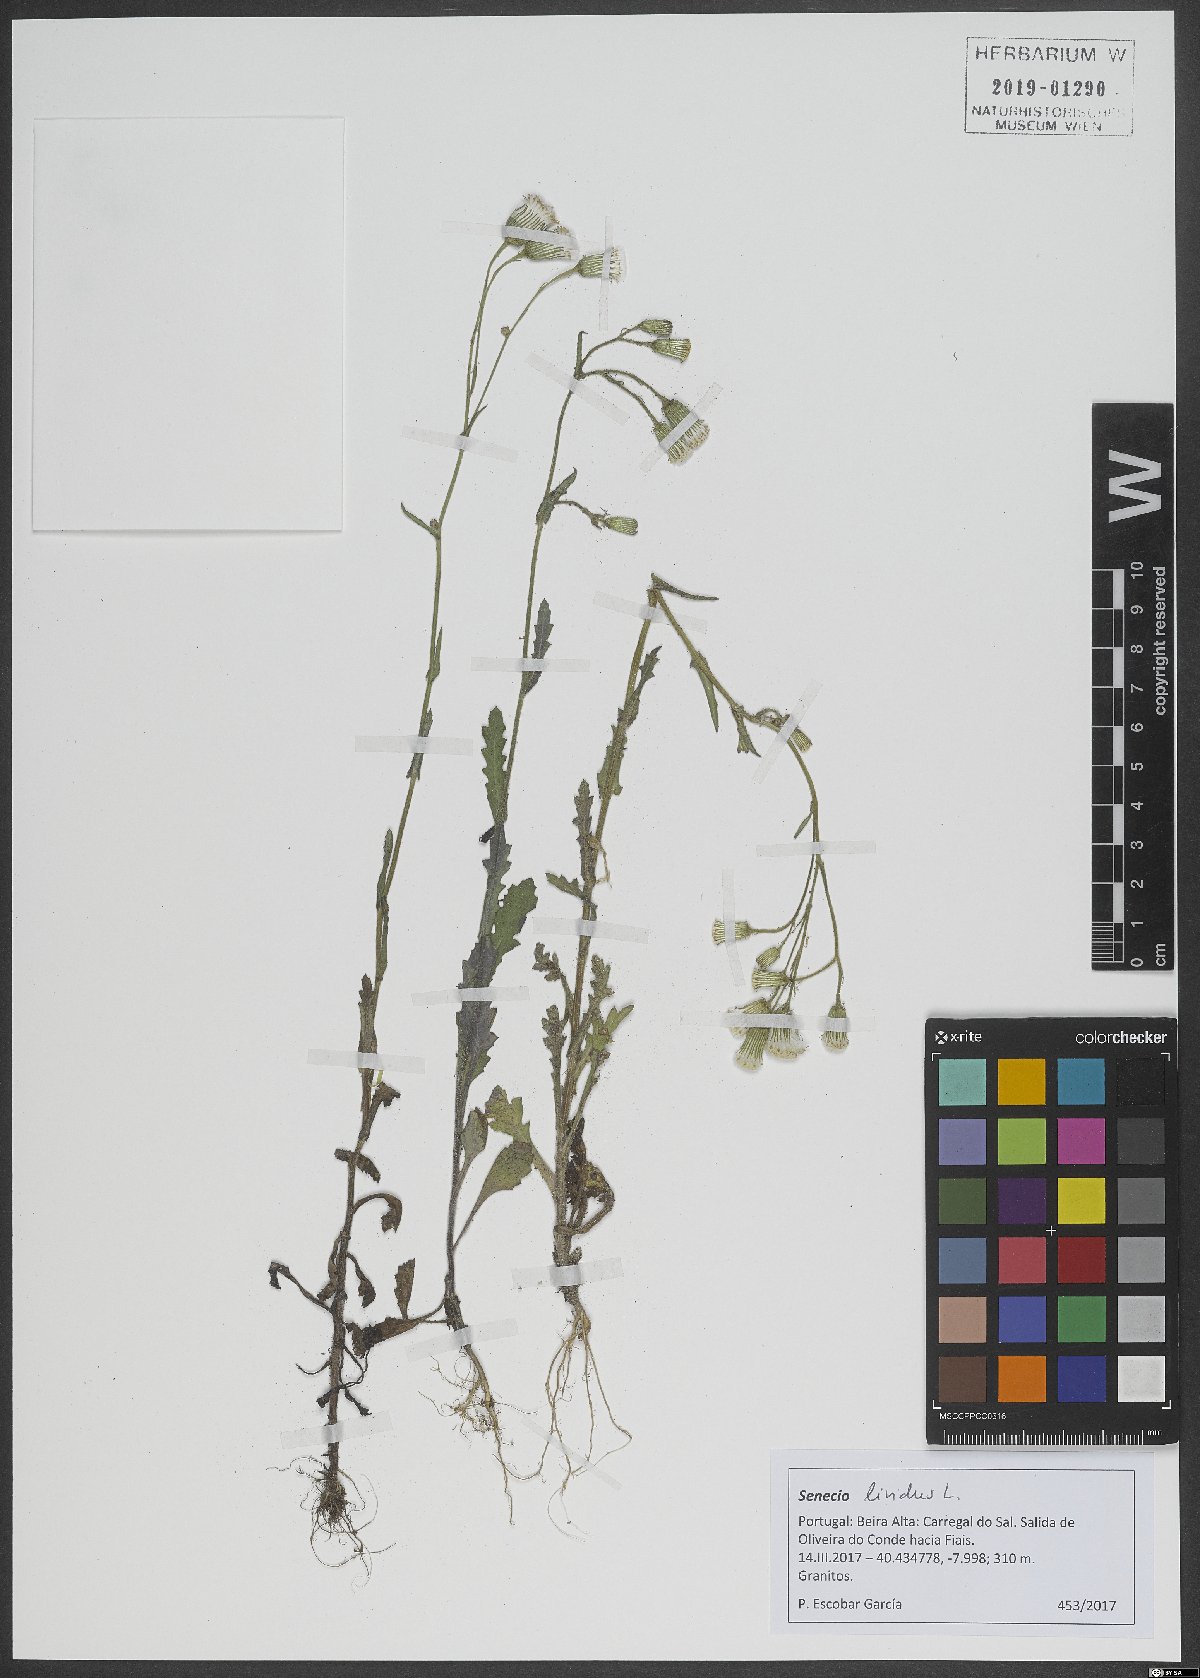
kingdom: Plantae
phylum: Tracheophyta
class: Magnoliopsida
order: Asterales
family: Asteraceae
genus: Senecio
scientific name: Senecio lividus
